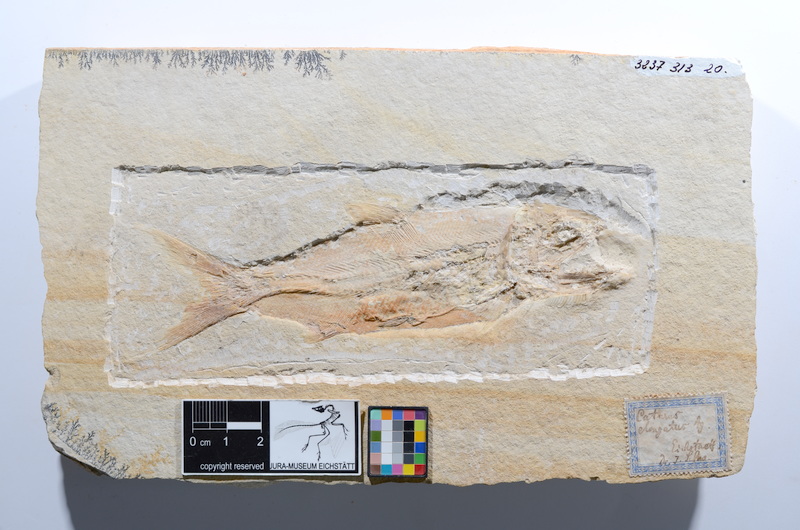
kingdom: Animalia
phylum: Chordata
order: Amiiformes
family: Caturidae
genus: Caturus
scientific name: Caturus furcatus
